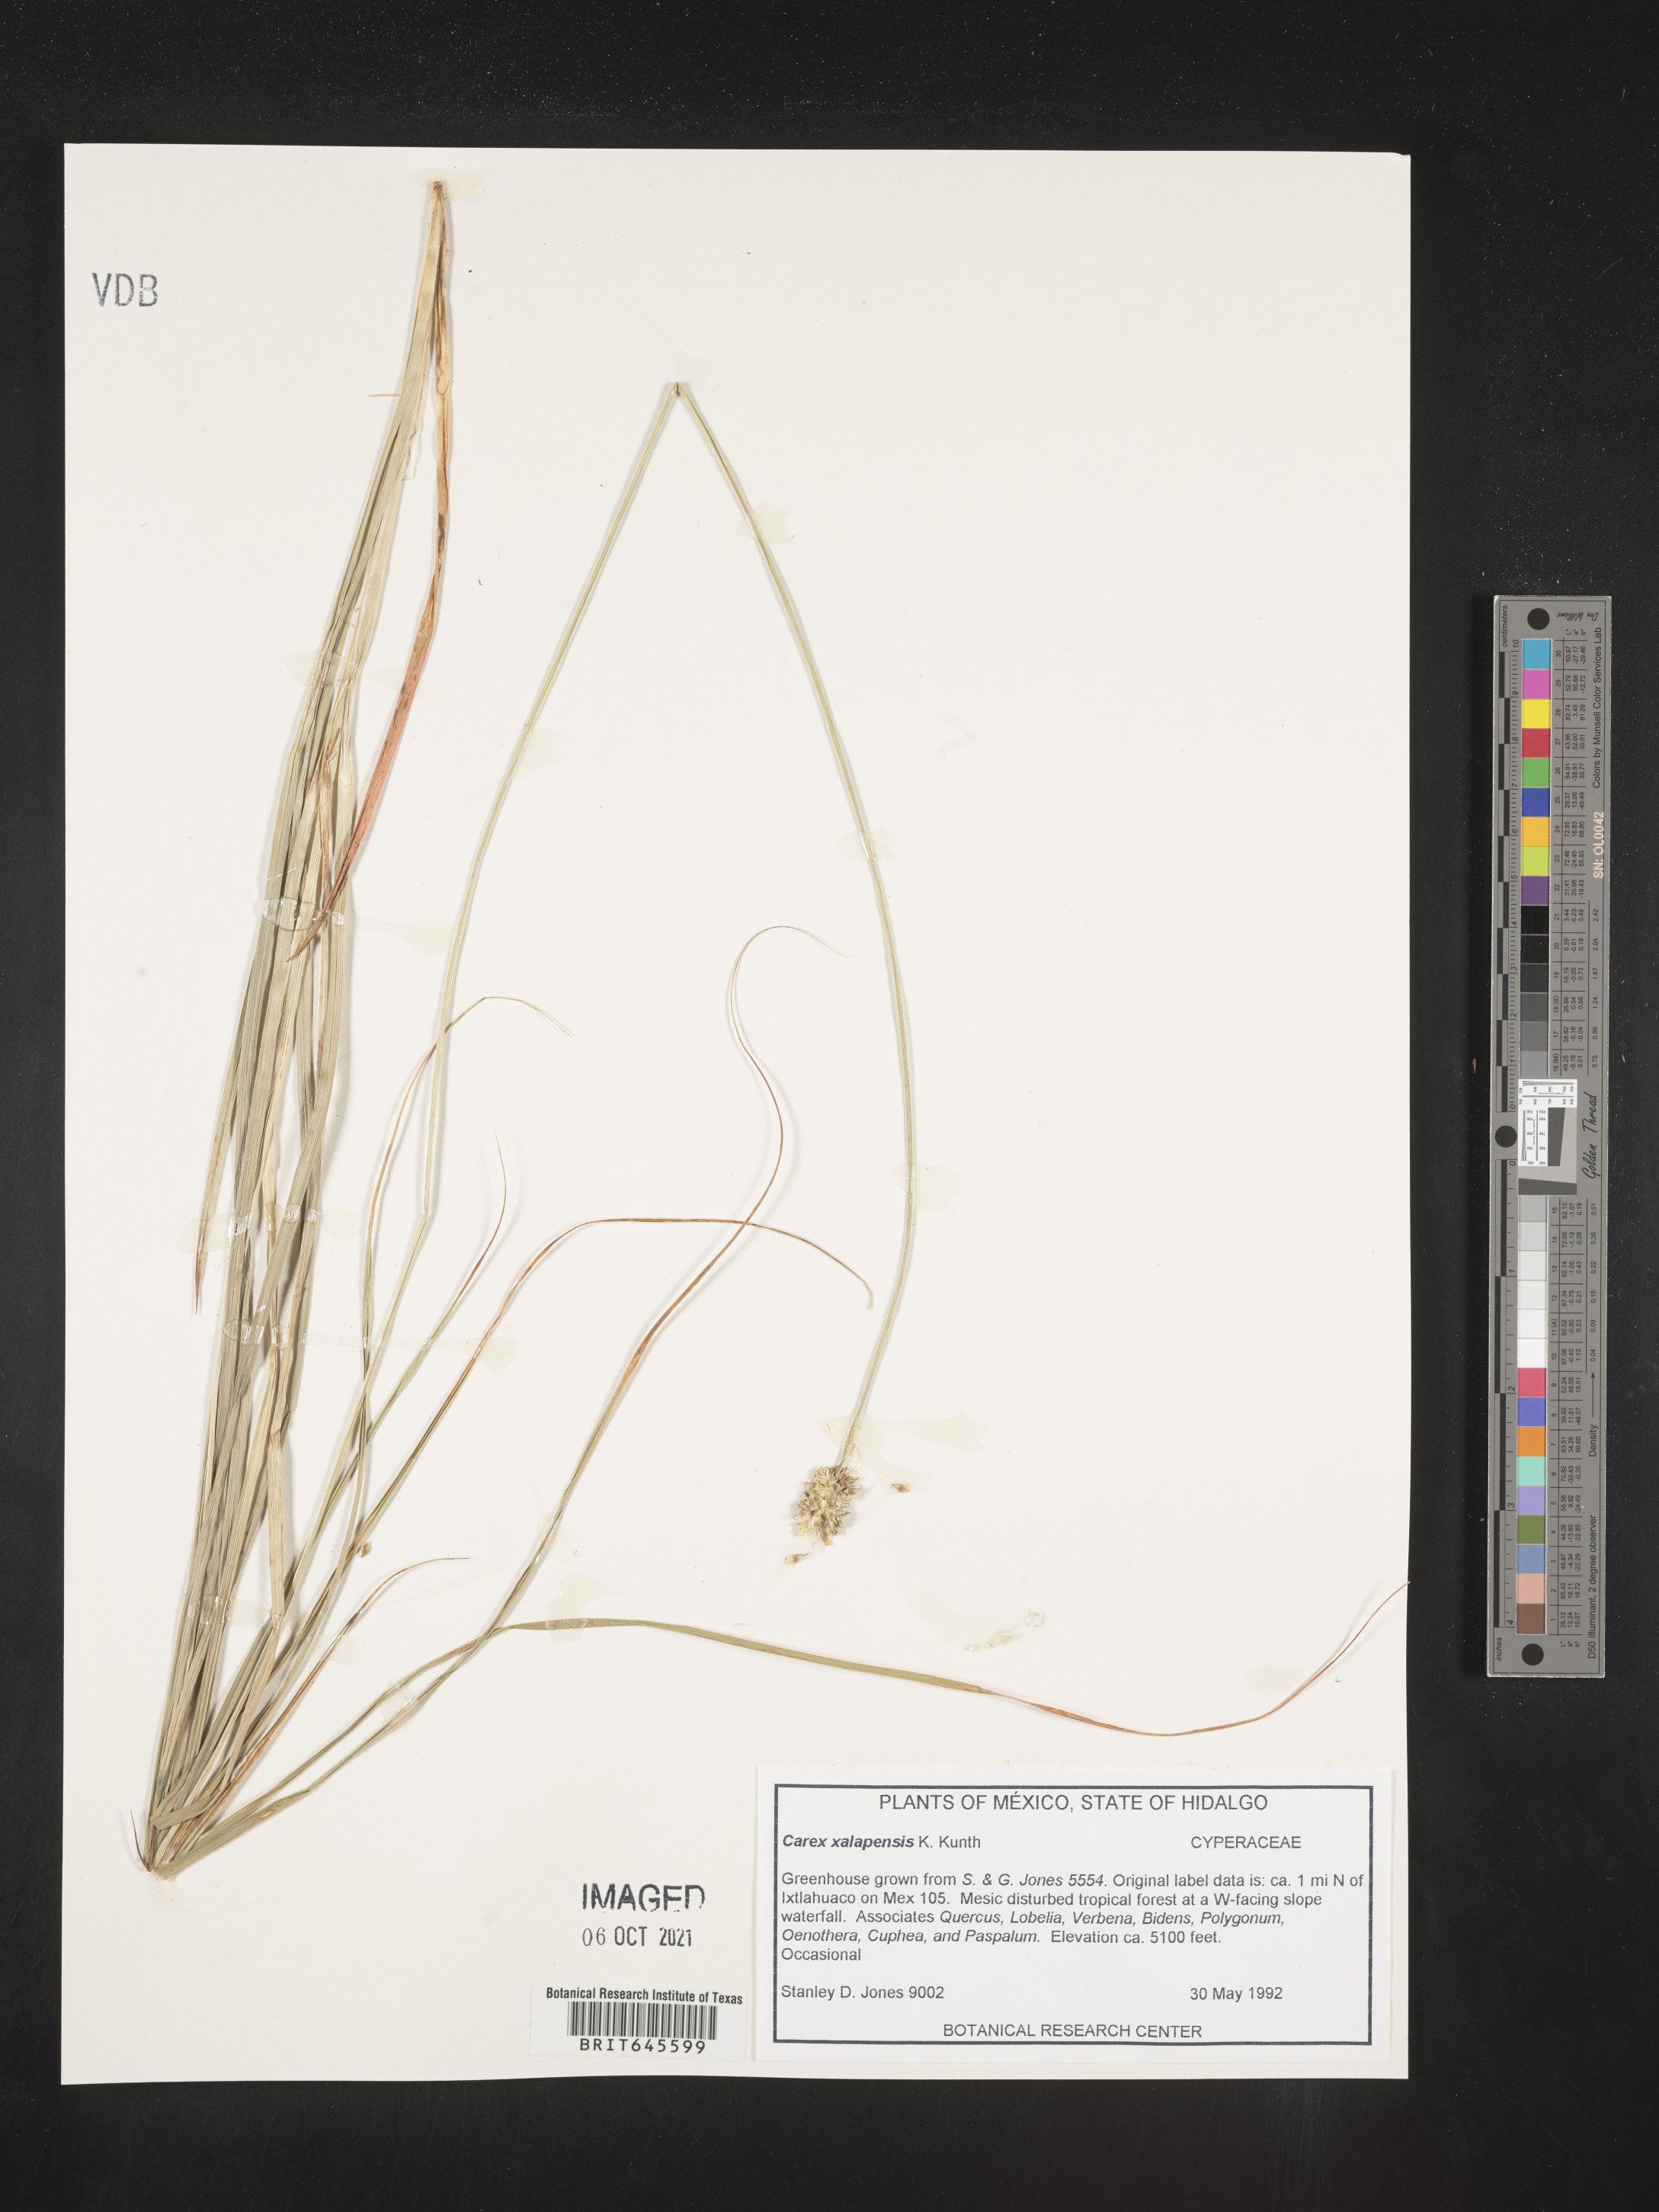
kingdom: Plantae
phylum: Tracheophyta
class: Liliopsida
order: Poales
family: Cyperaceae
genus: Carex
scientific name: Carex
